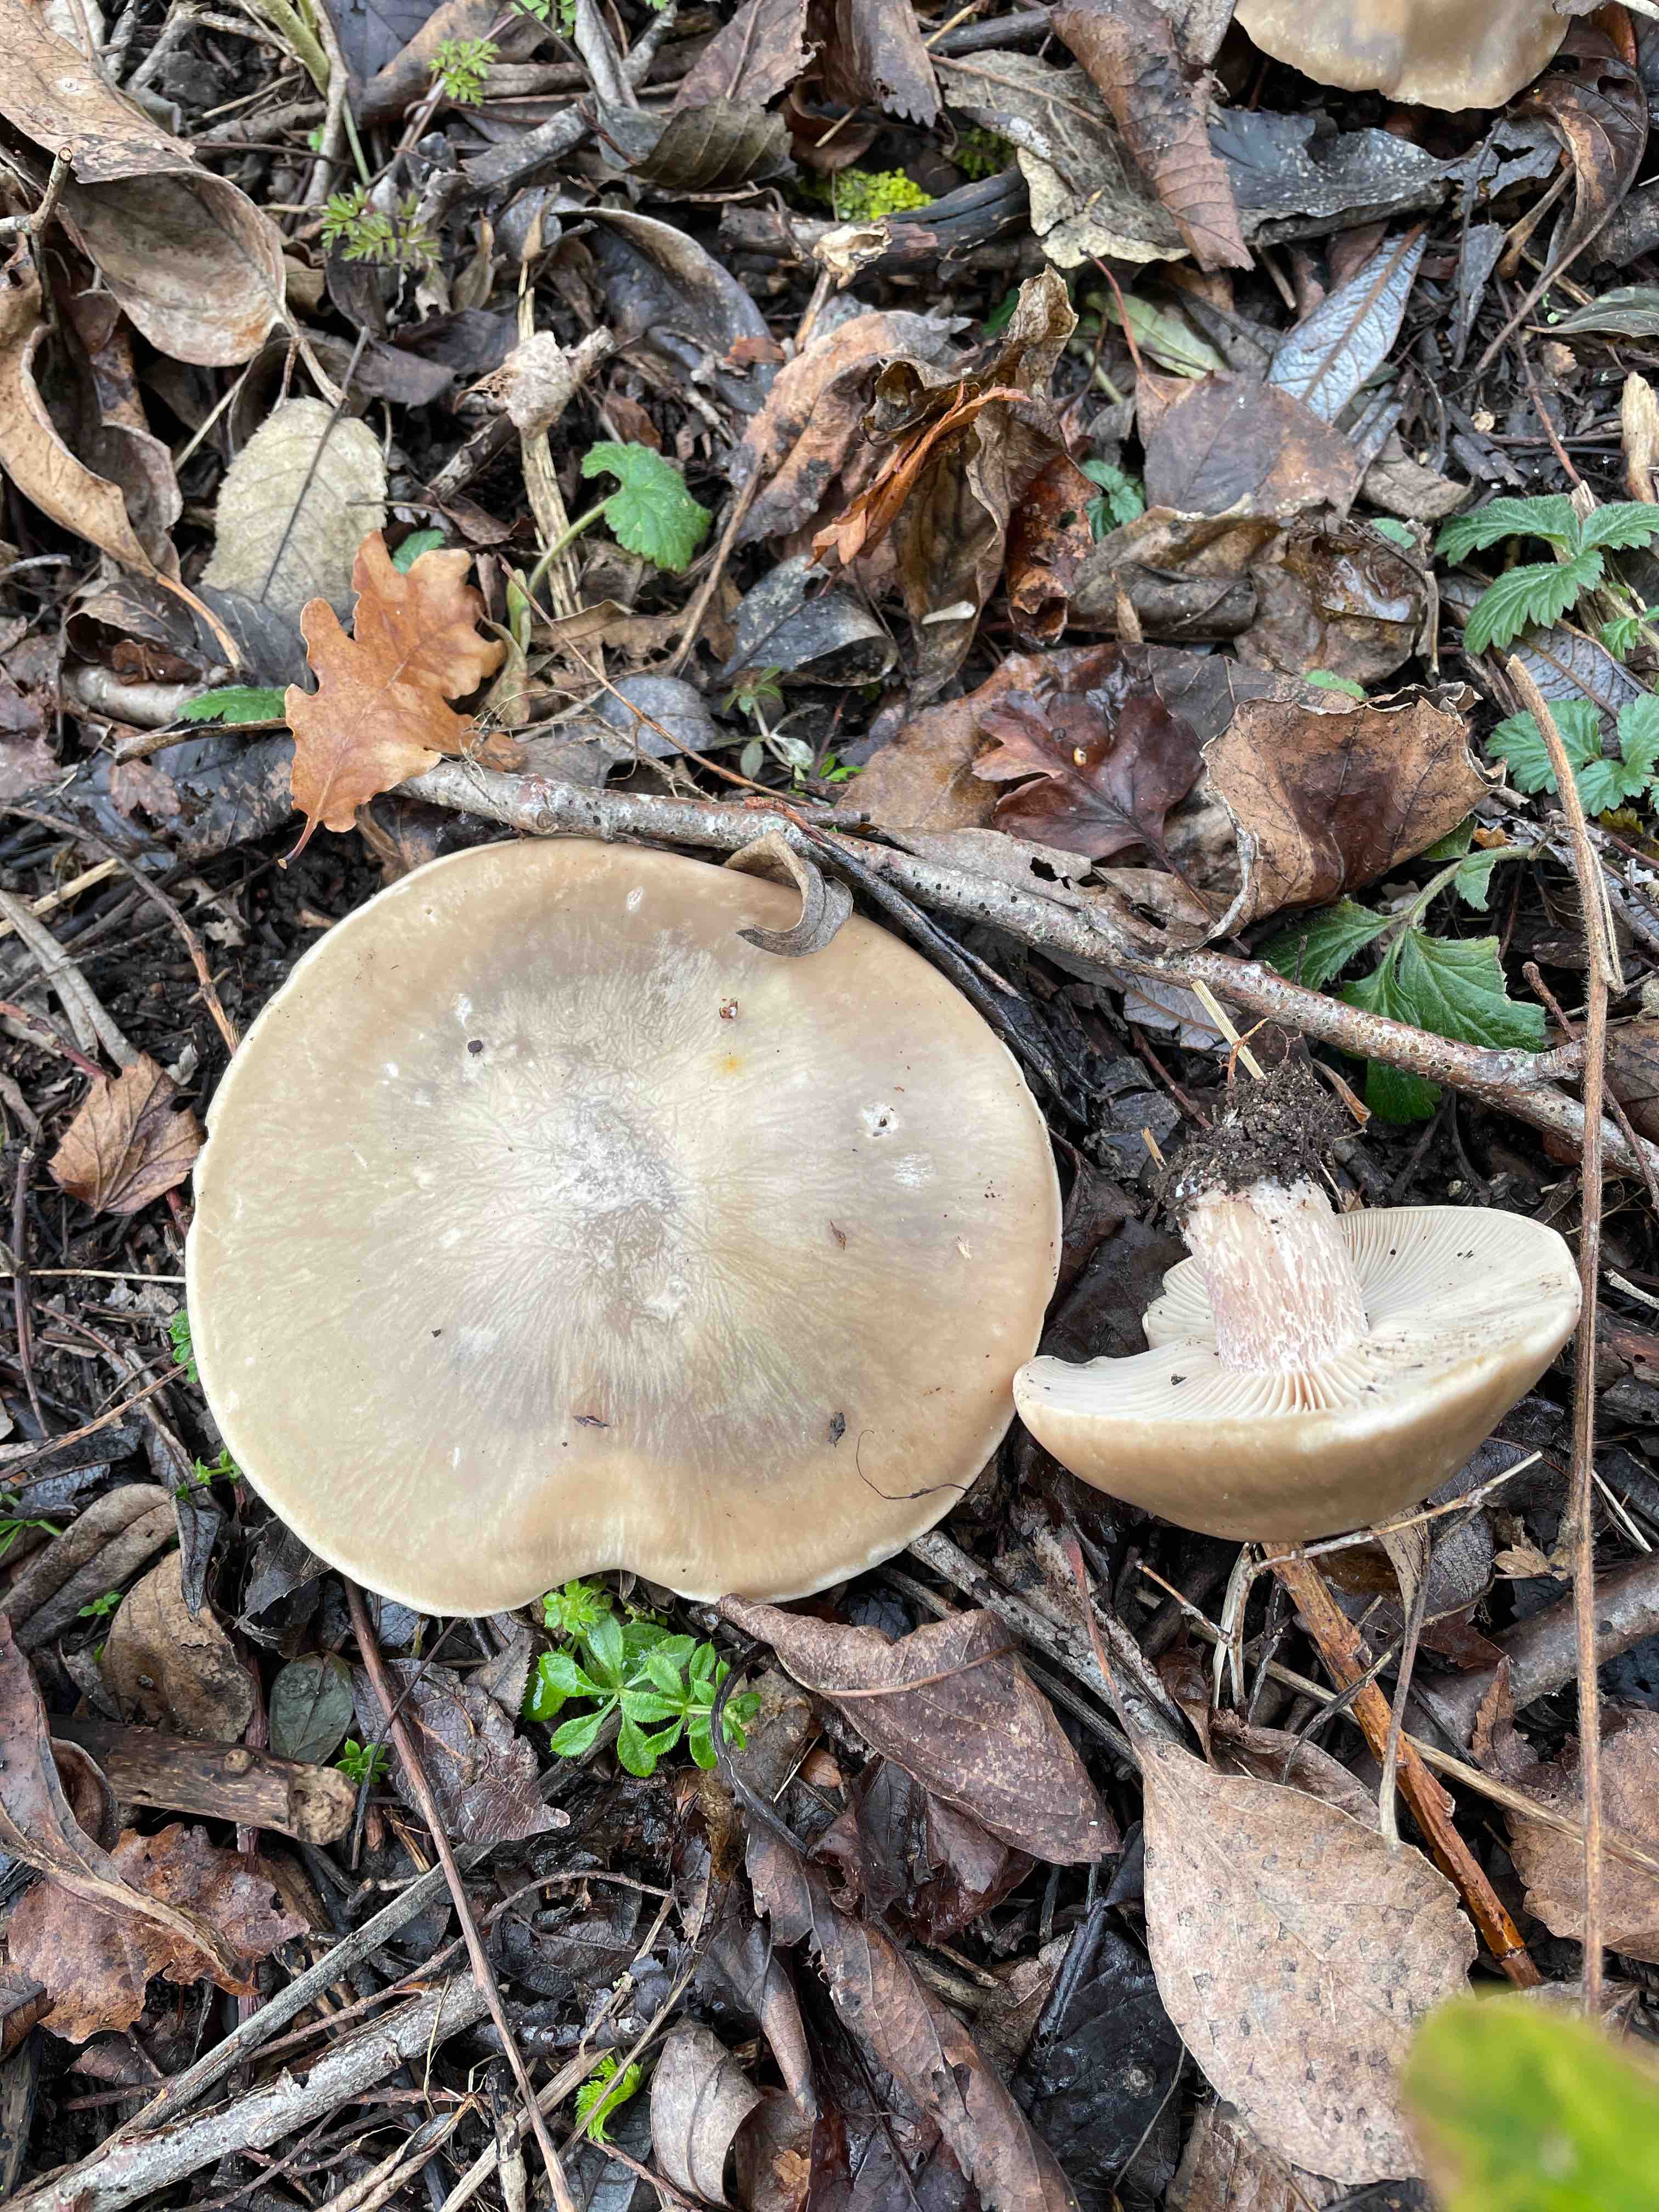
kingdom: Fungi
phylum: Basidiomycota
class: Agaricomycetes
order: Agaricales
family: Tricholomataceae
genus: Lepista
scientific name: Lepista personata
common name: bleg hekseringshat
